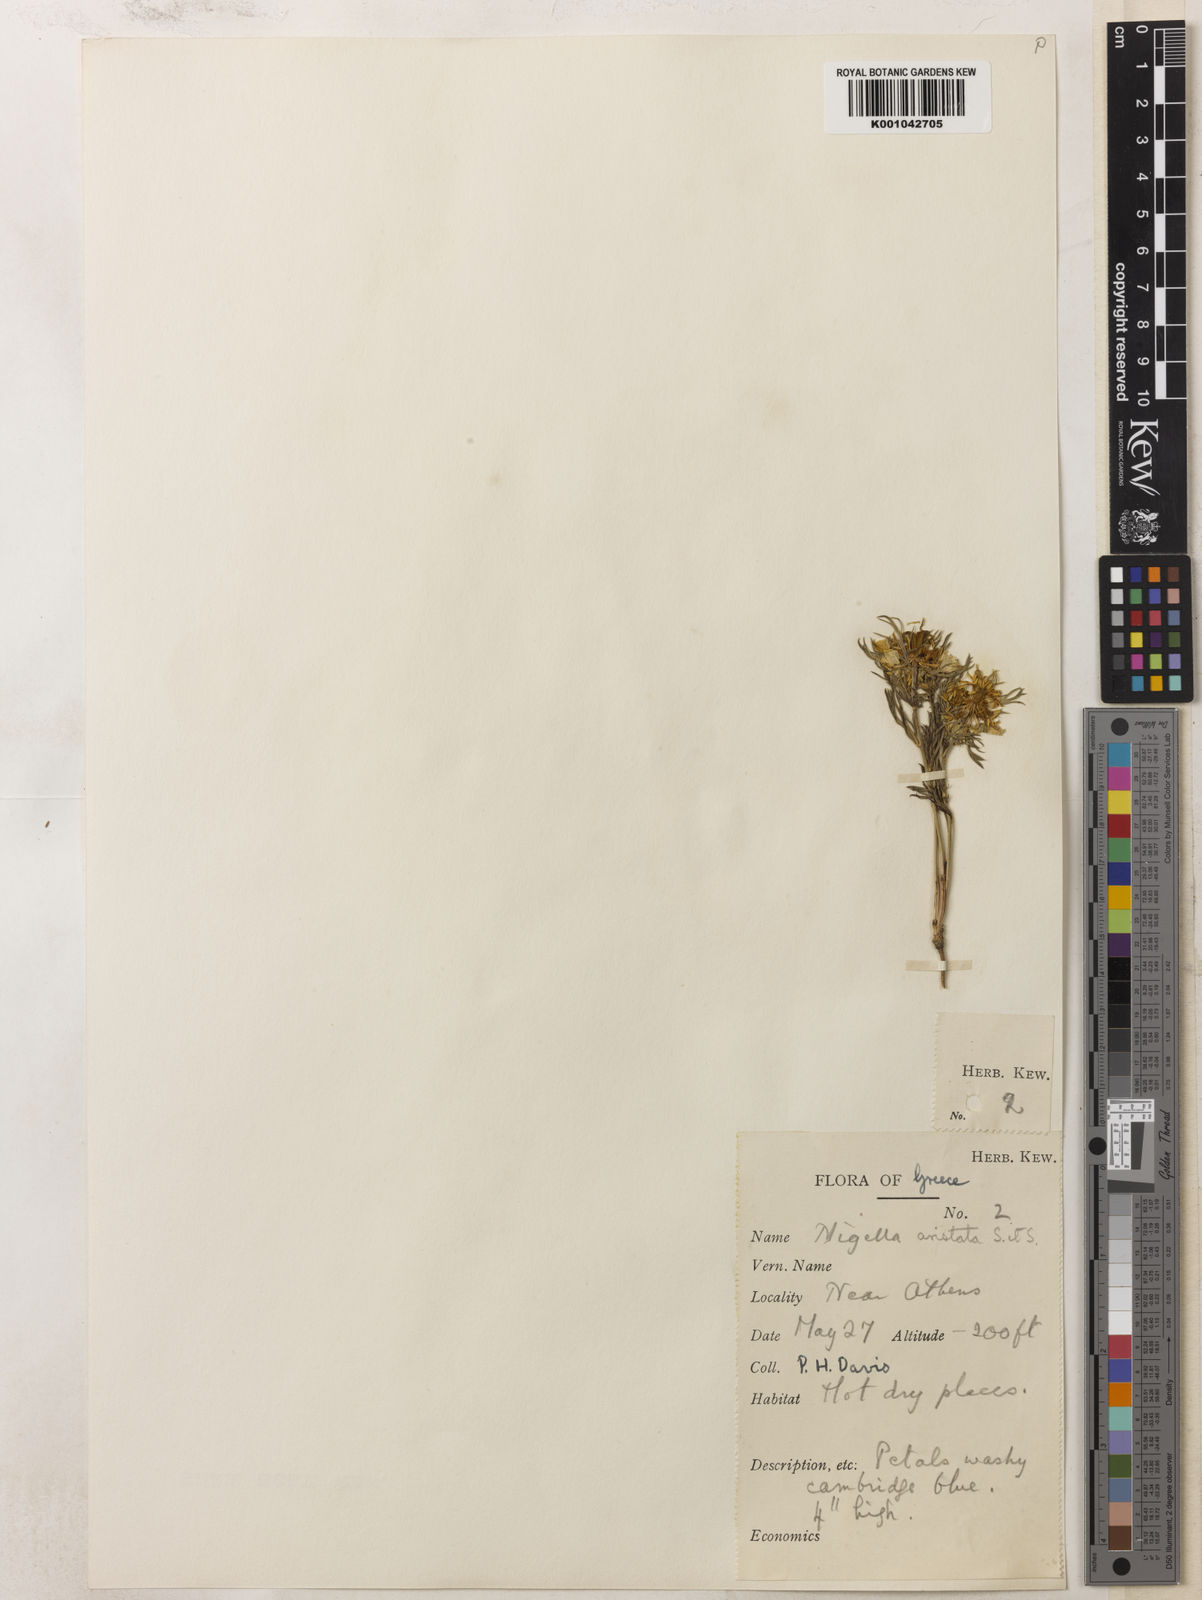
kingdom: Plantae
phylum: Tracheophyta
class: Magnoliopsida
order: Ranunculales
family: Ranunculaceae
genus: Nigella
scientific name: Nigella arvensis
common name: Wild fennel-flower
